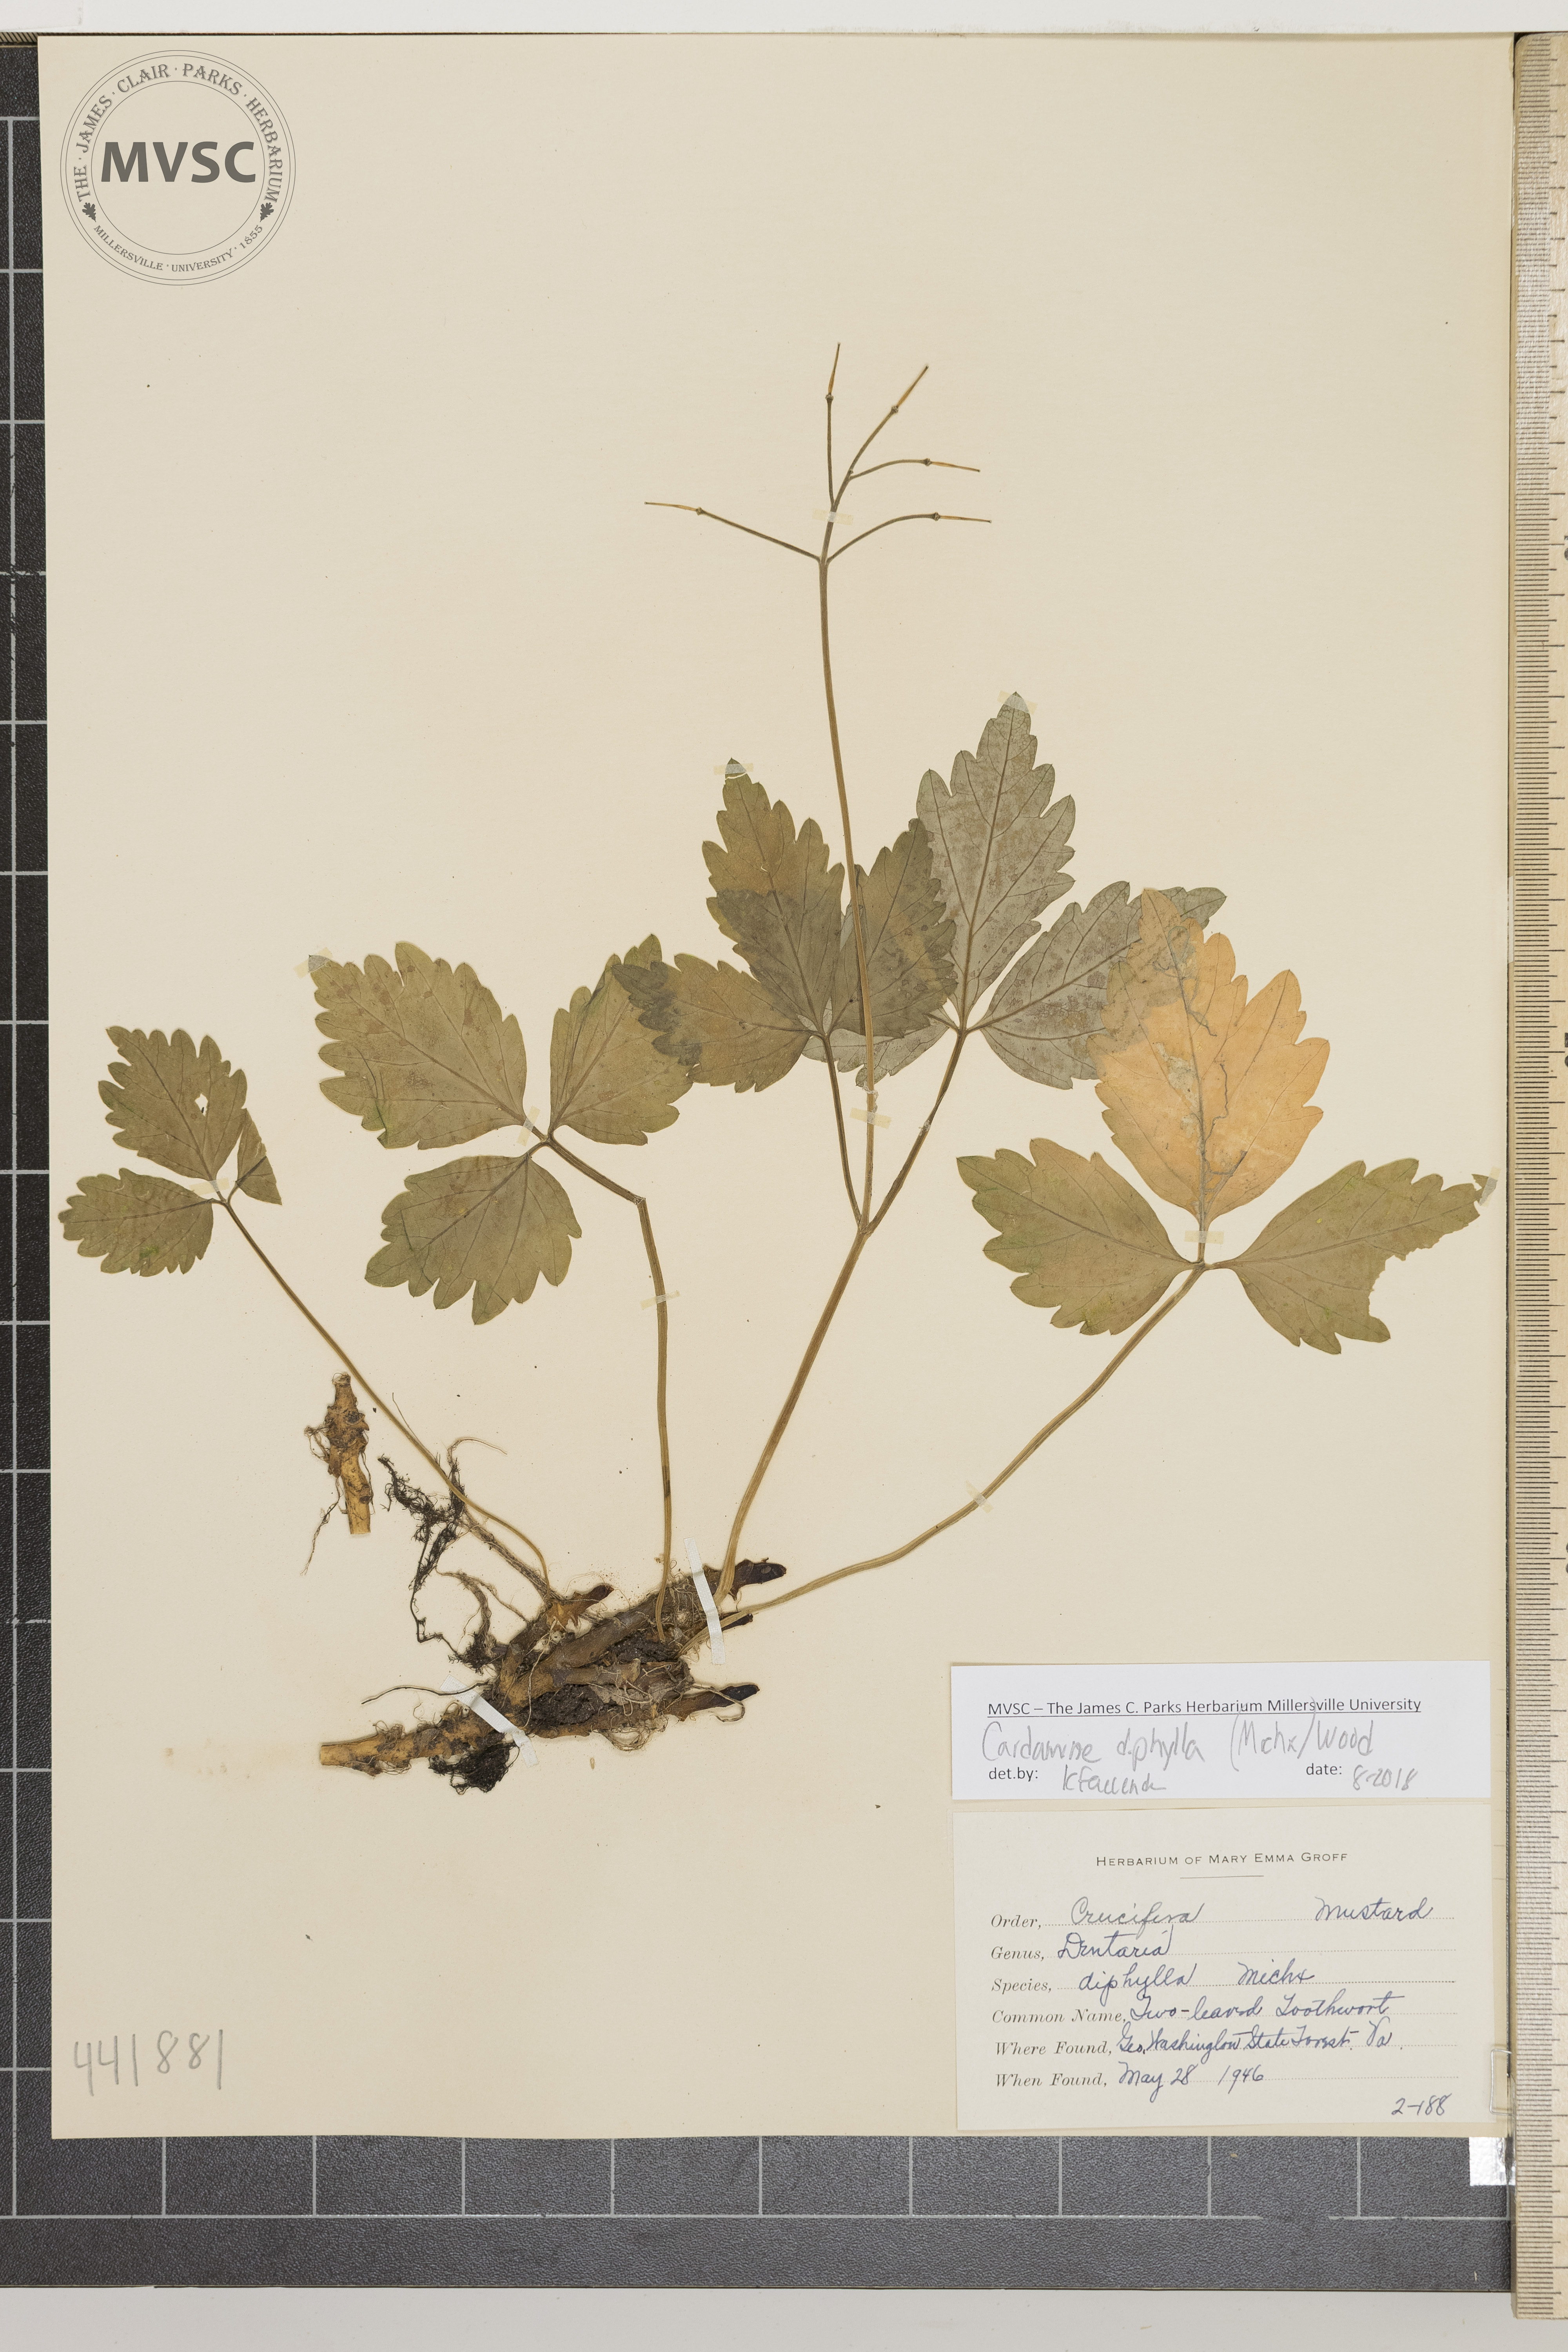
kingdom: Plantae
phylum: Tracheophyta
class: Magnoliopsida
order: Brassicales
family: Brassicaceae
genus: Cardamine
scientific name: Cardamine diphylla
